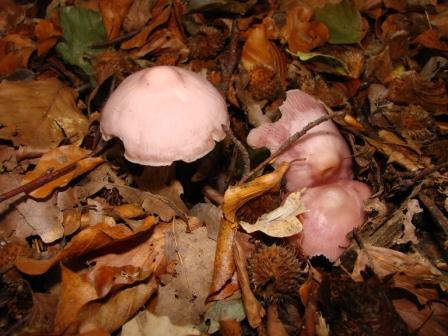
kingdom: Fungi
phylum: Basidiomycota
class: Agaricomycetes
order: Agaricales
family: Mycenaceae
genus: Mycena
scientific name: Mycena rosea
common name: rosa huesvamp
